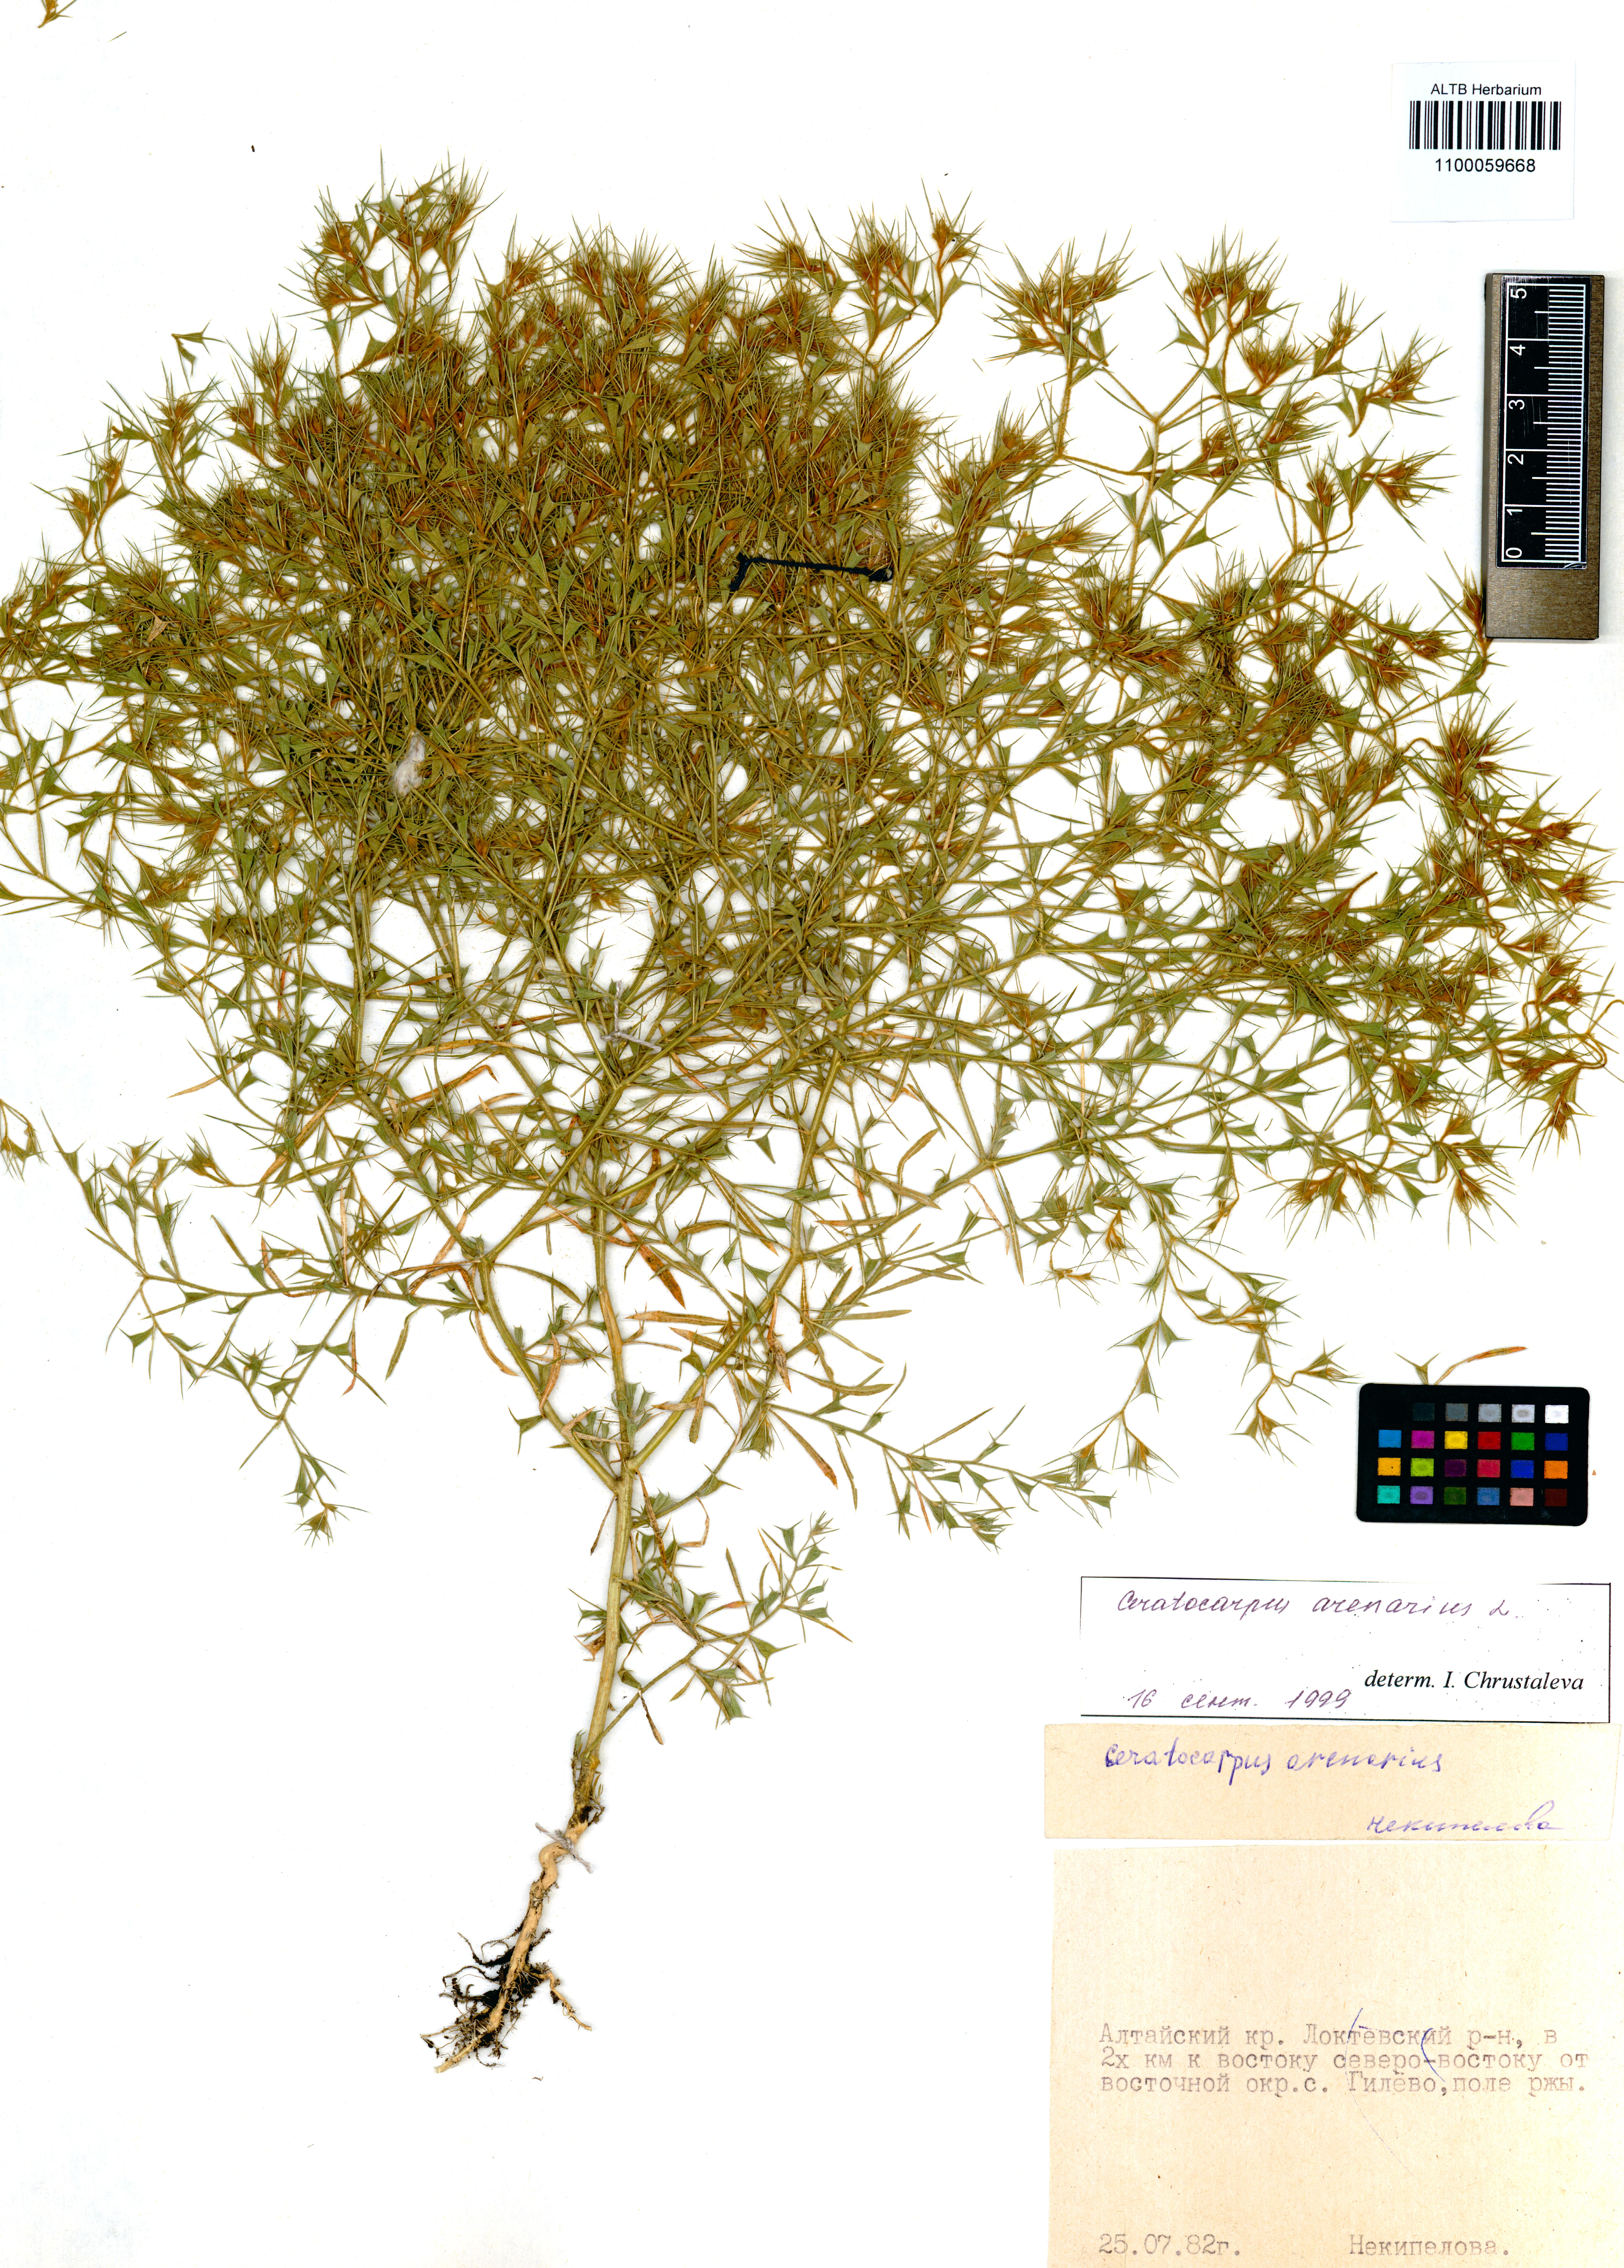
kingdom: Plantae
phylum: Tracheophyta
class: Magnoliopsida
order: Caryophyllales
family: Amaranthaceae
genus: Ceratocarpus
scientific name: Ceratocarpus arenarius
